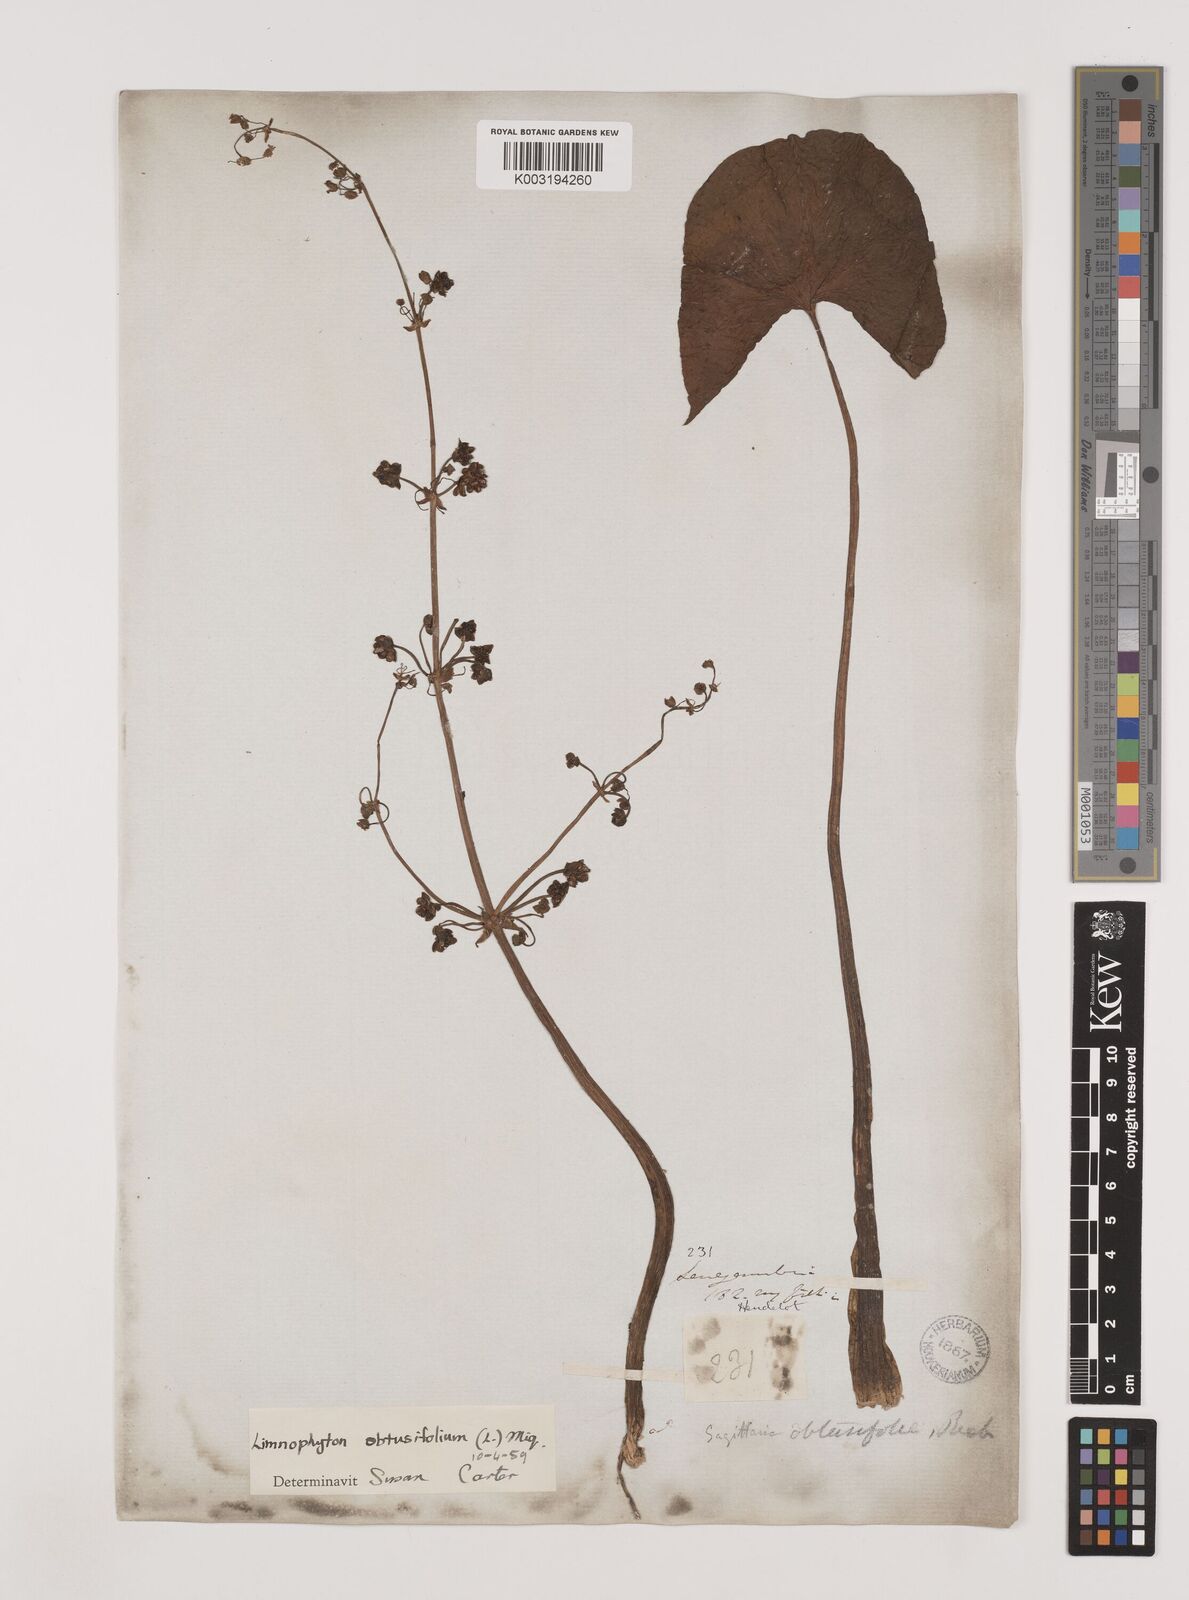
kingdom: Plantae
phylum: Tracheophyta
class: Liliopsida
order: Alismatales
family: Alismataceae
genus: Limnophyton
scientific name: Limnophyton obtusifolium
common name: Arrow head
